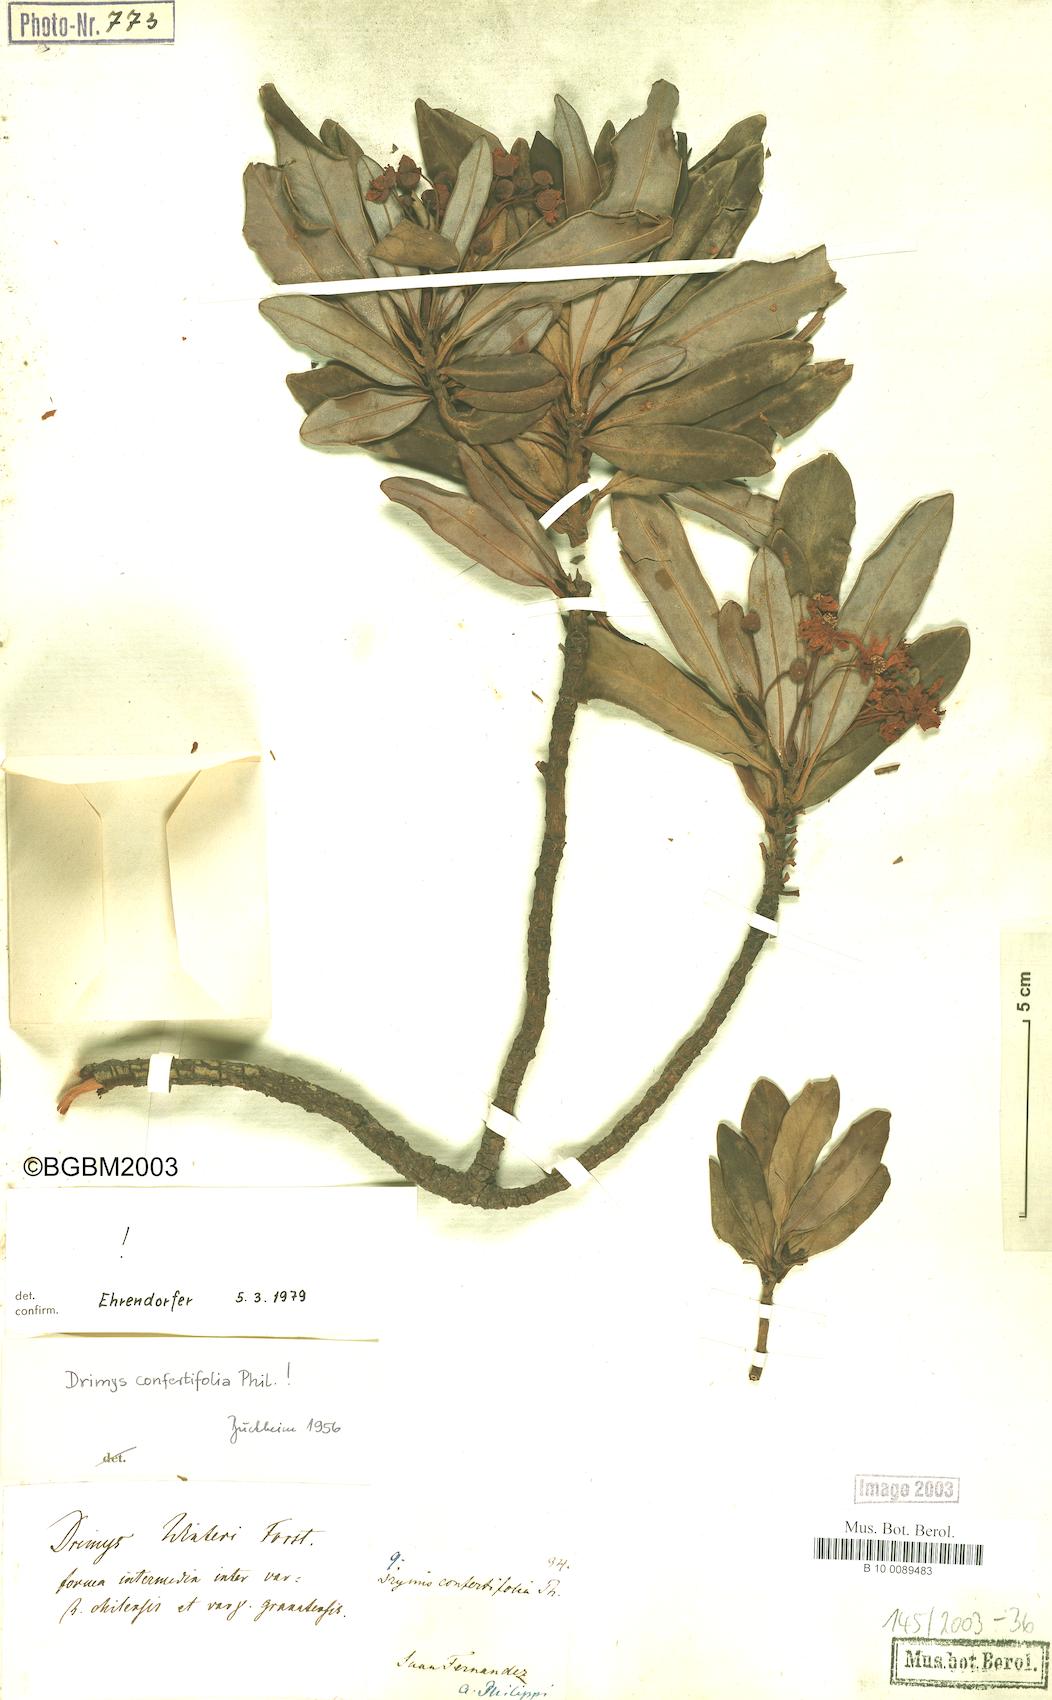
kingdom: Plantae
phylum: Tracheophyta
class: Magnoliopsida
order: Canellales
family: Winteraceae
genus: Drimys
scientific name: Drimys confertiflora
